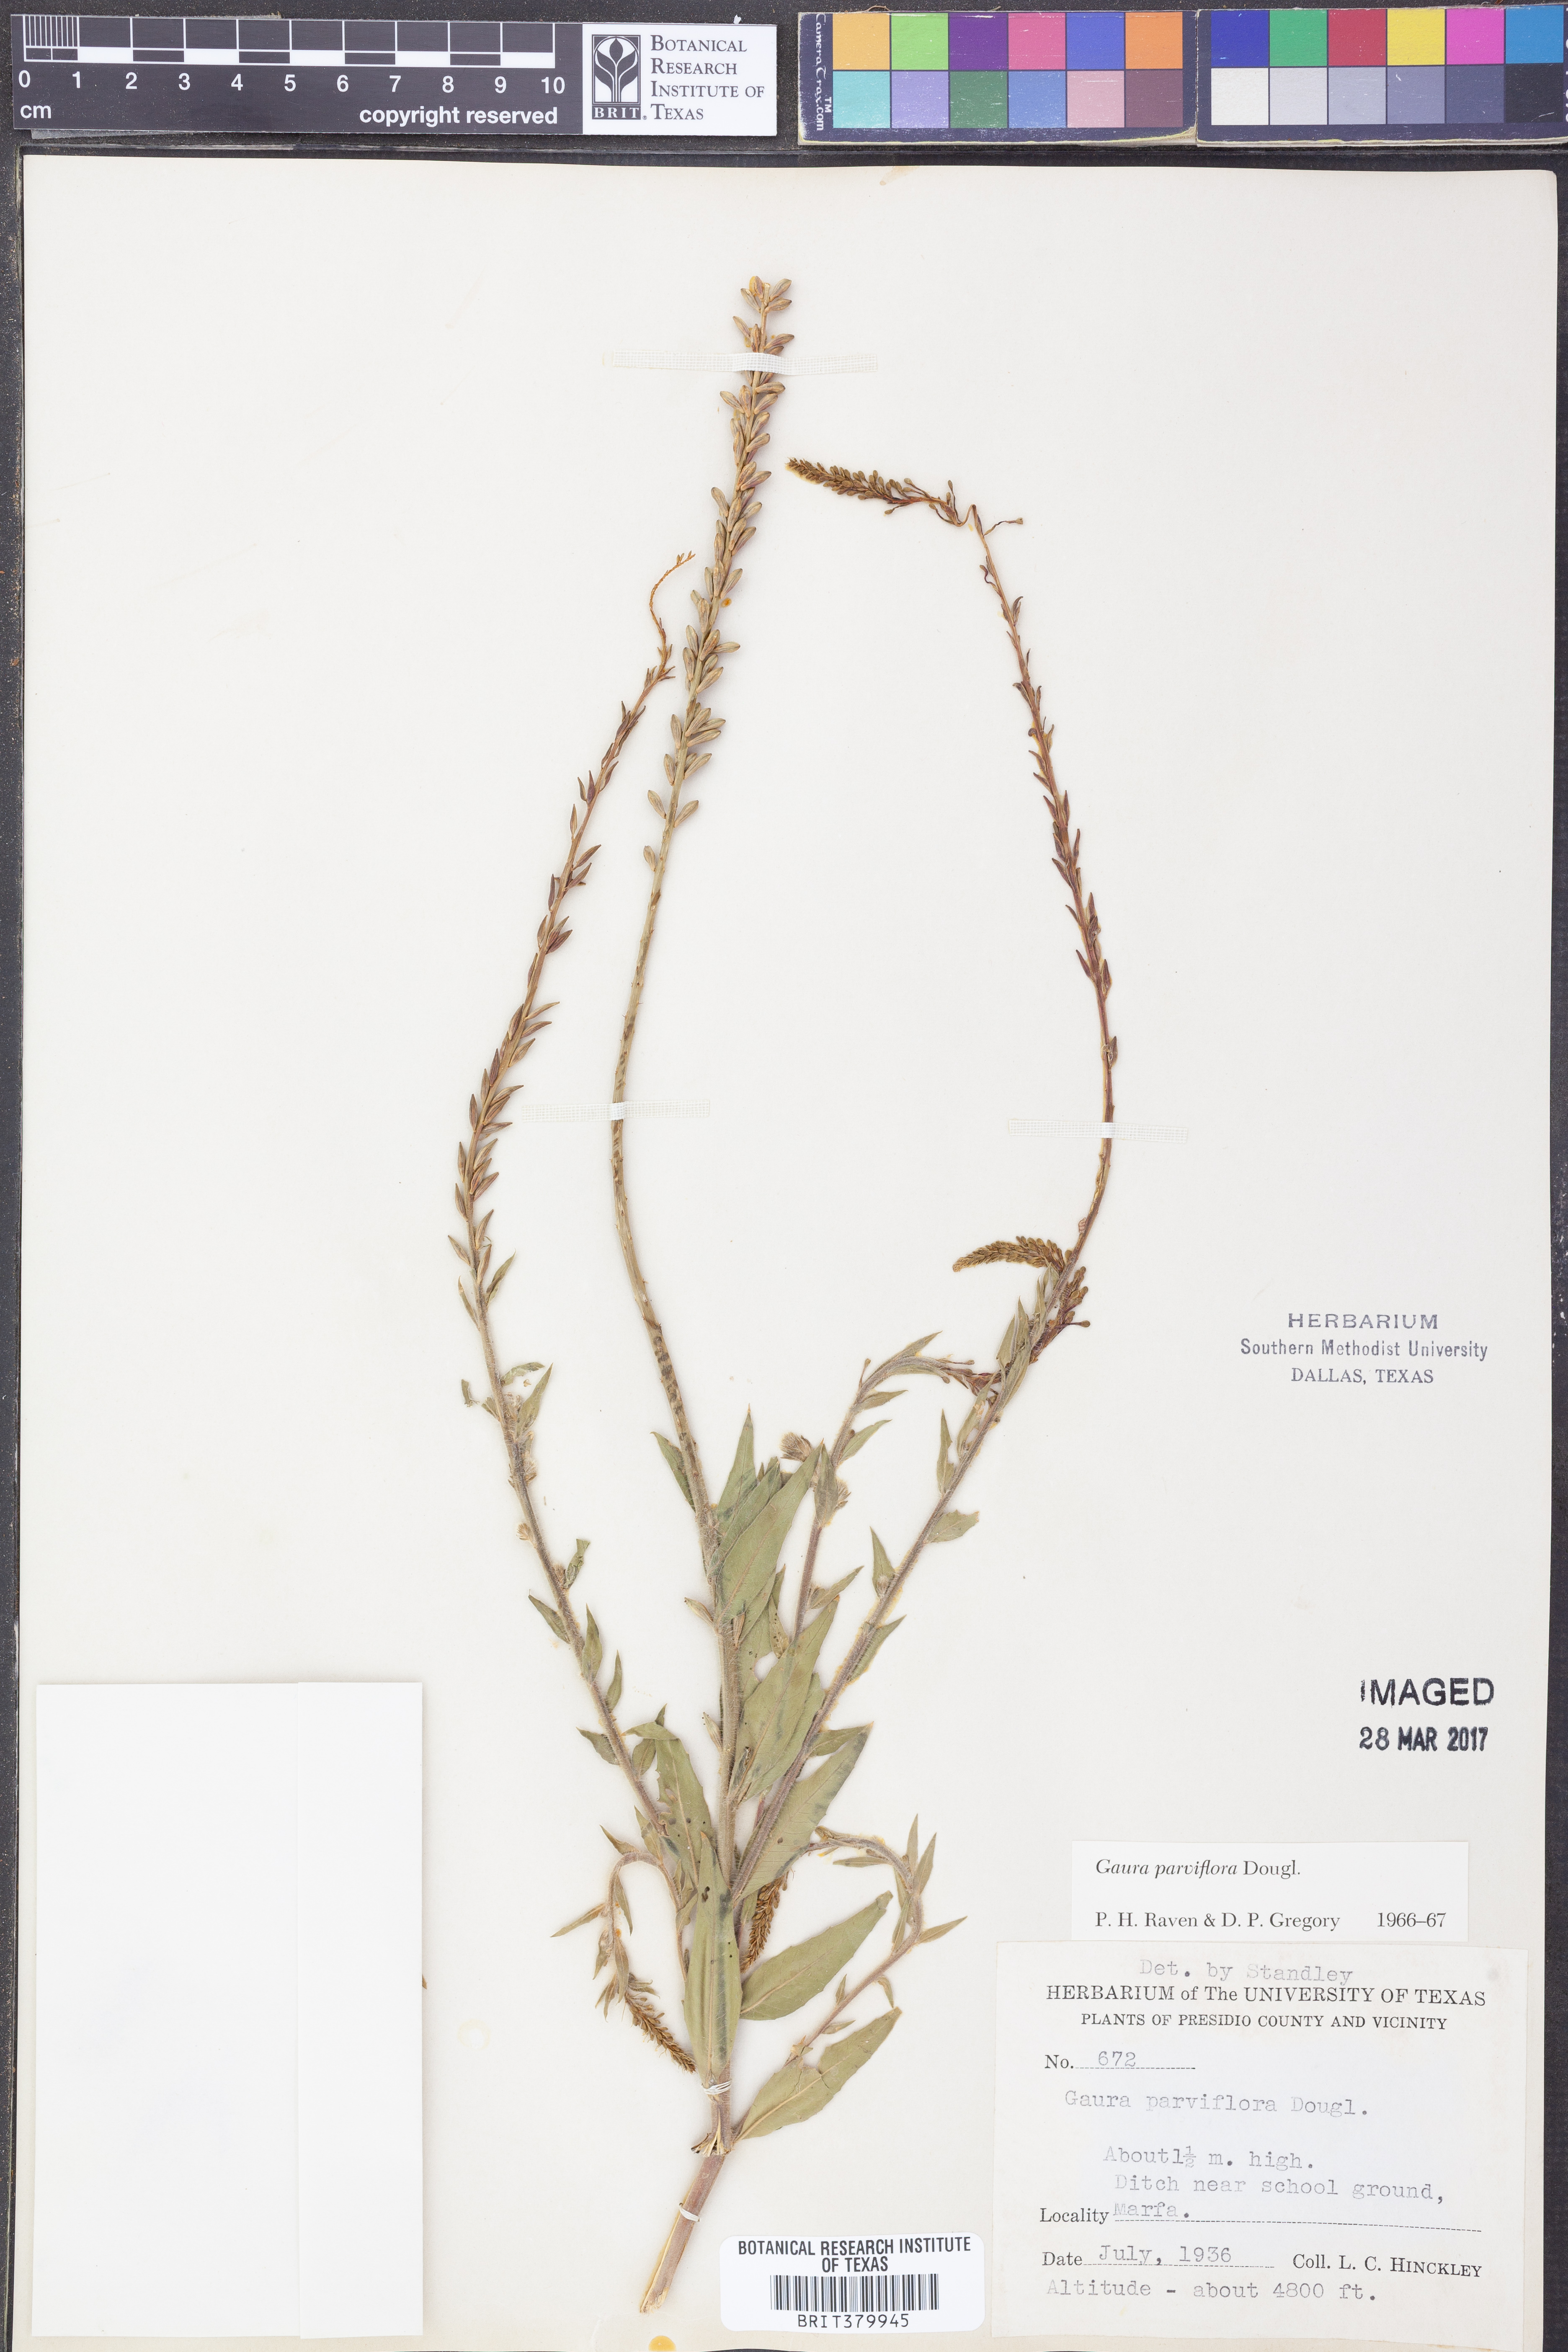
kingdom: Plantae
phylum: Tracheophyta
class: Magnoliopsida
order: Myrtales
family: Onagraceae
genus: Oenothera
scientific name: Oenothera curtiflora
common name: Velvetweed
